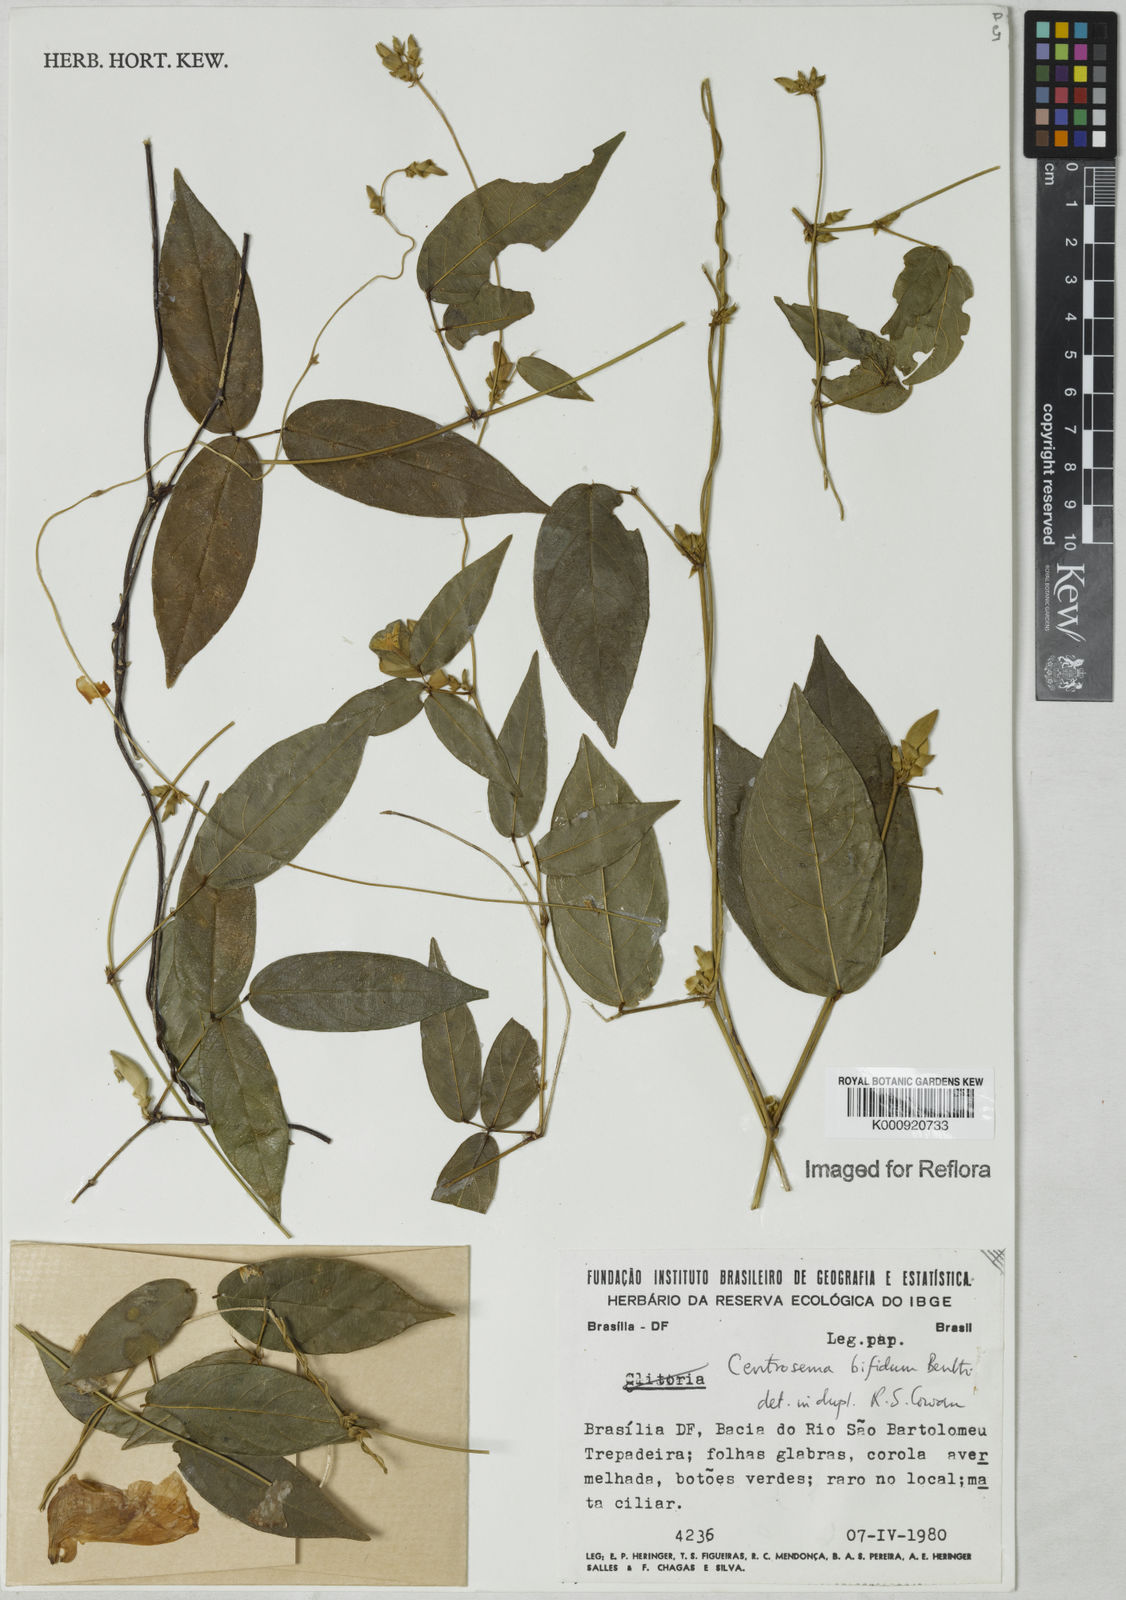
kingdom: Plantae
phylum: Tracheophyta
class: Magnoliopsida
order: Fabales
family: Fabaceae
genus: Centrosema
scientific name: Centrosema bifidum
